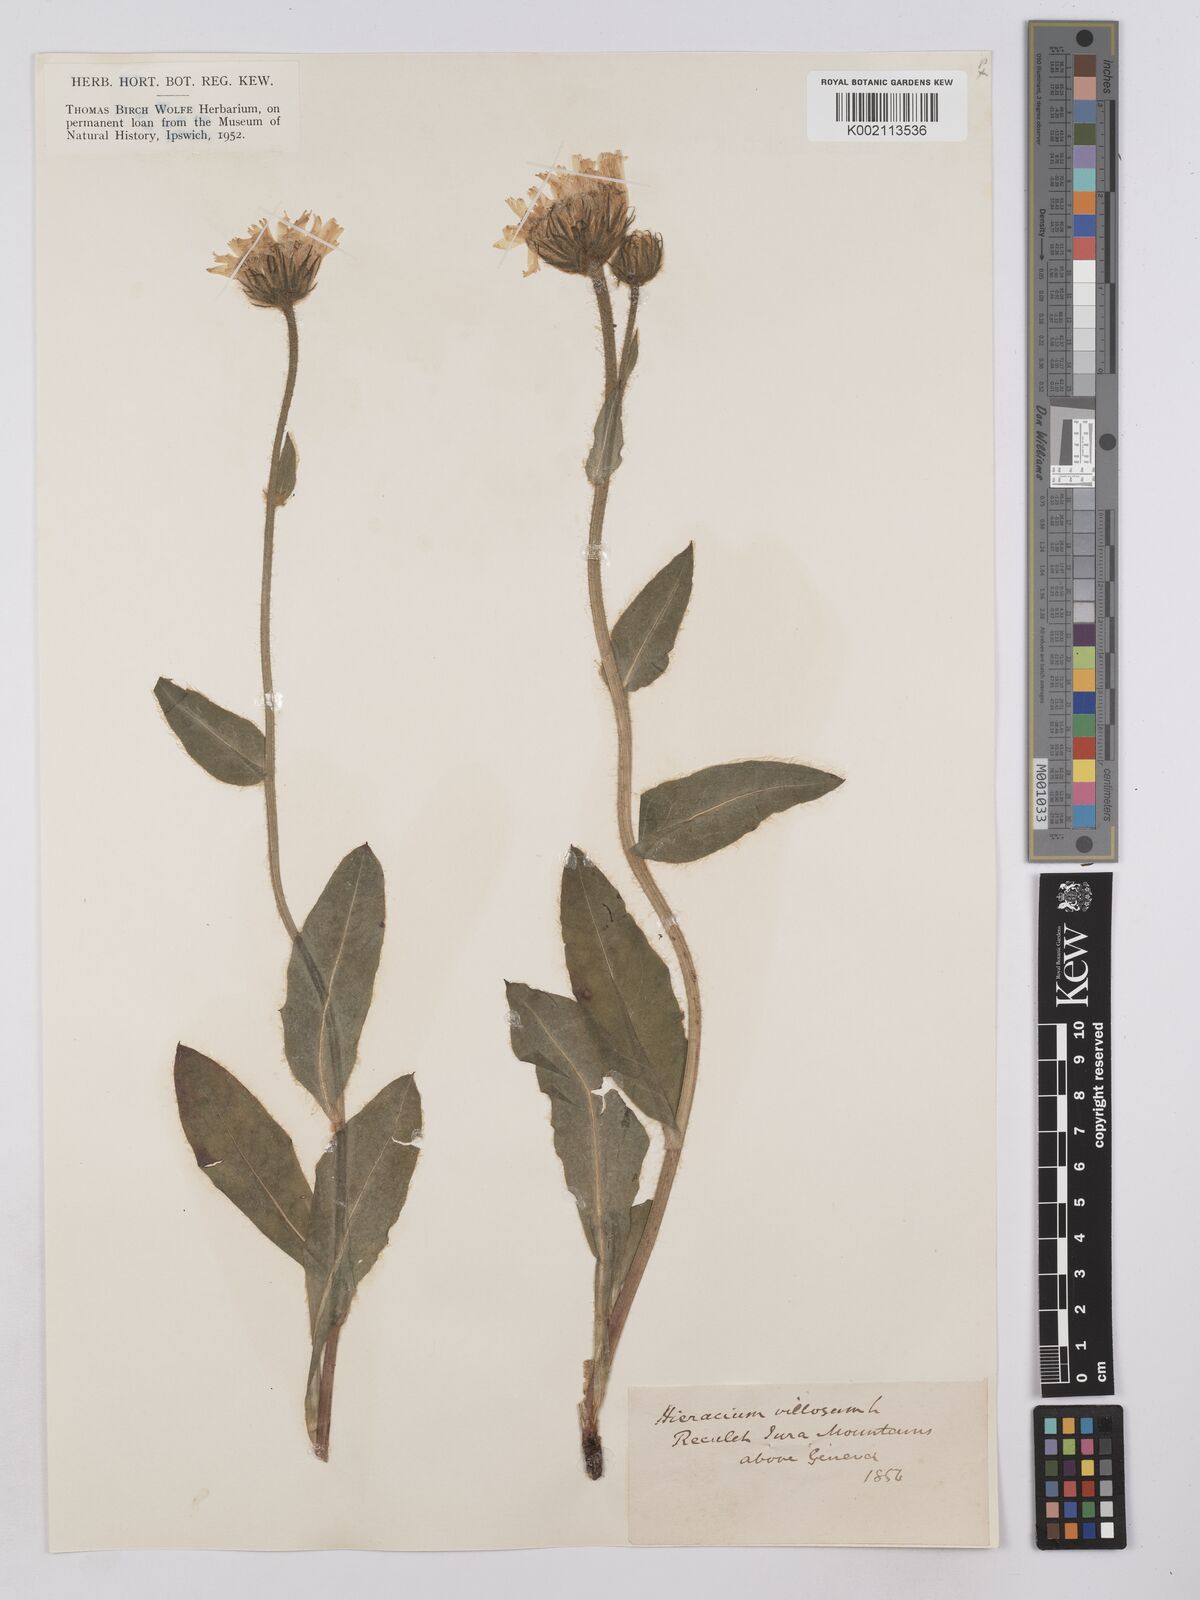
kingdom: Plantae
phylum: Tracheophyta
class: Magnoliopsida
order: Asterales
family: Asteraceae
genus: Hieracium
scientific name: Hieracium villosum
